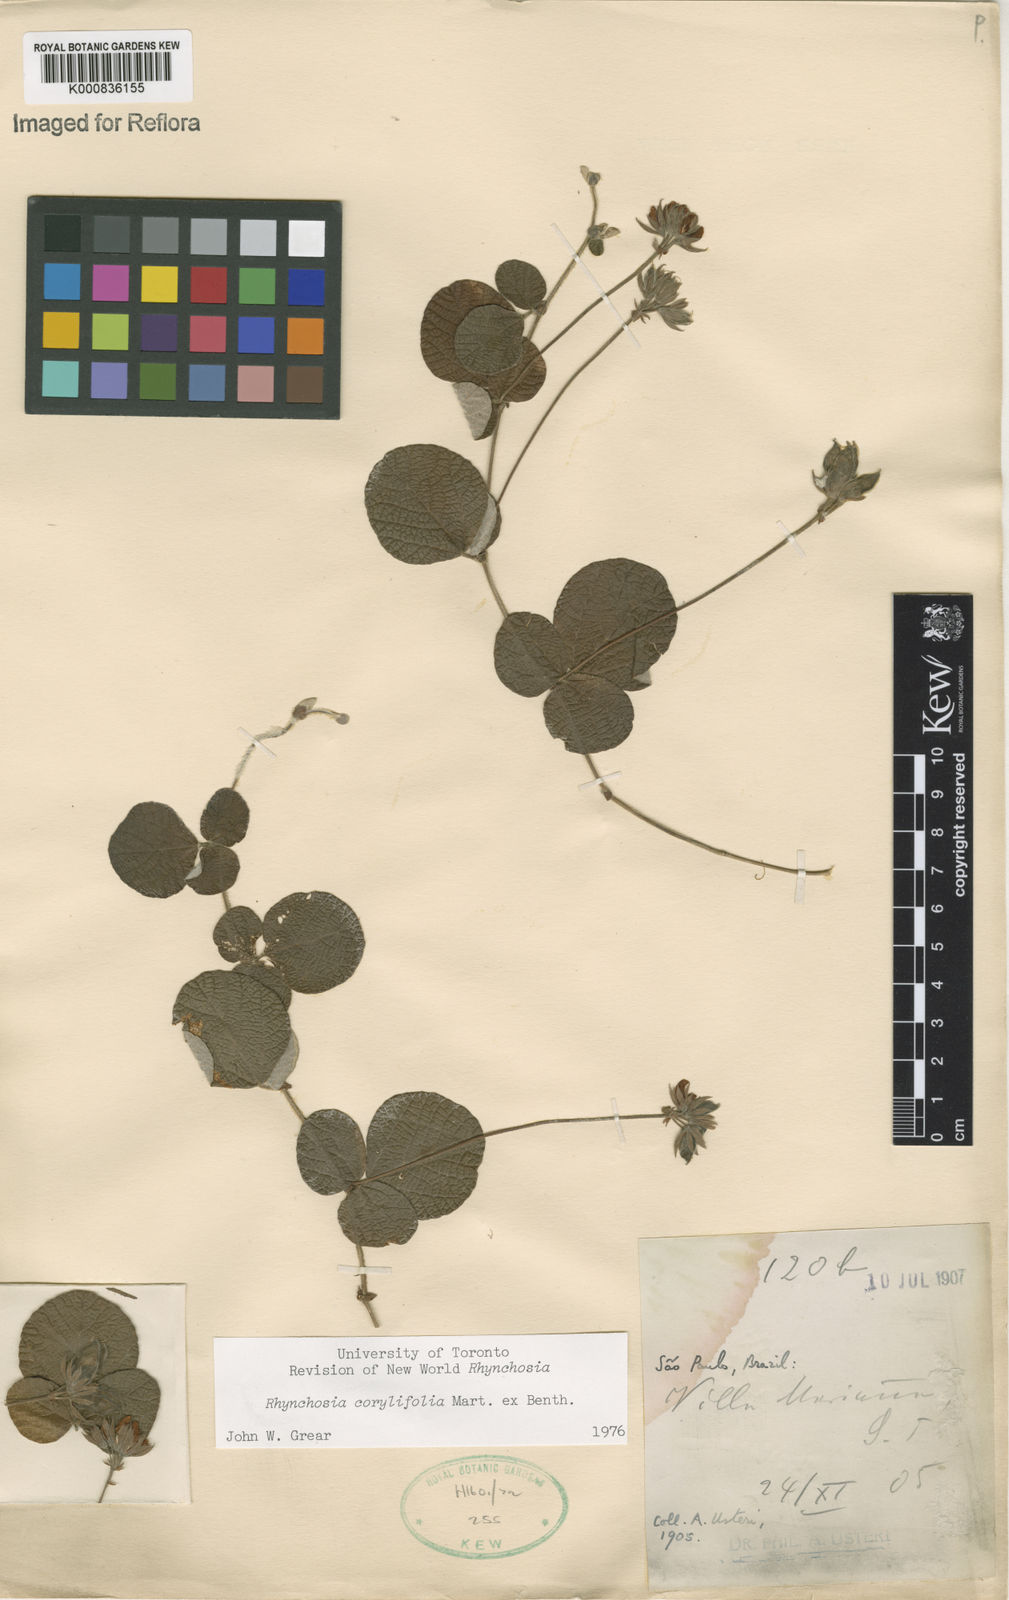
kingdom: Plantae
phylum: Tracheophyta
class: Magnoliopsida
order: Fabales
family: Fabaceae
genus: Rhynchosia
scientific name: Rhynchosia corylifolia
